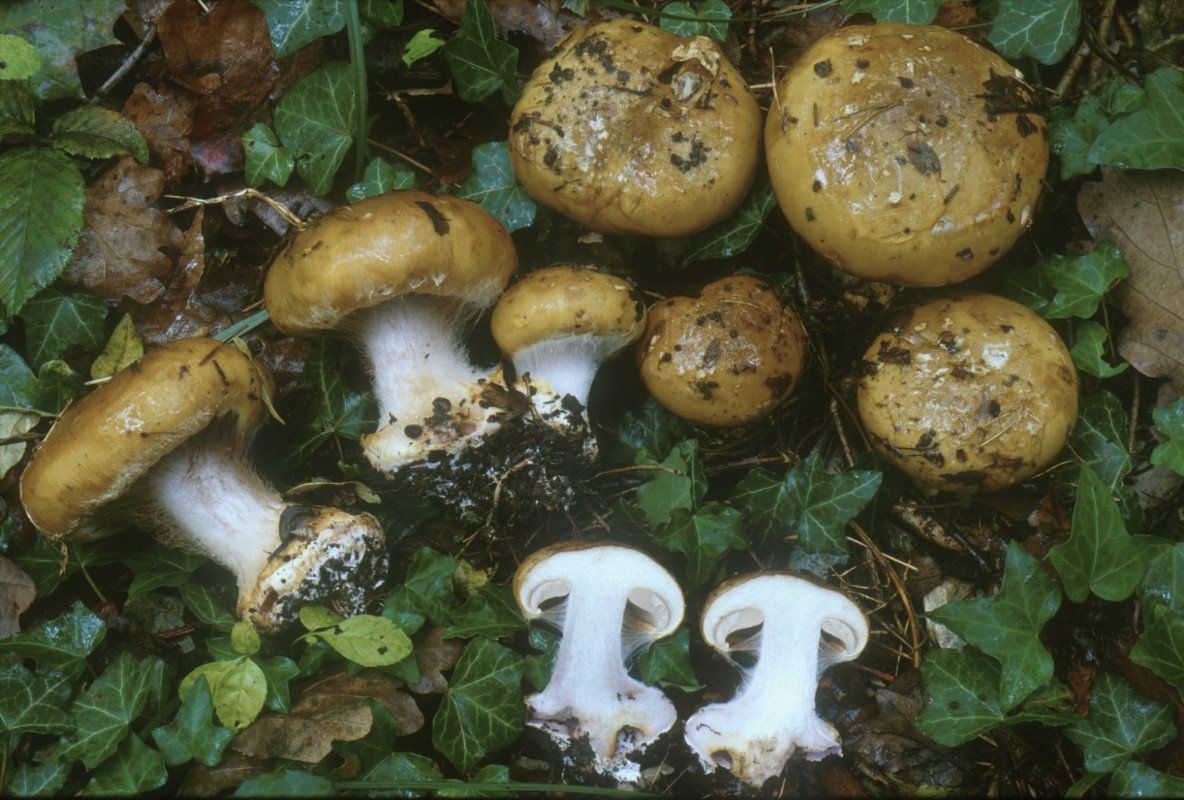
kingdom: Fungi
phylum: Basidiomycota
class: Agaricomycetes
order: Agaricales
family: Cortinariaceae
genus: Cortinarius
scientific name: Cortinarius flavidolilacinus
